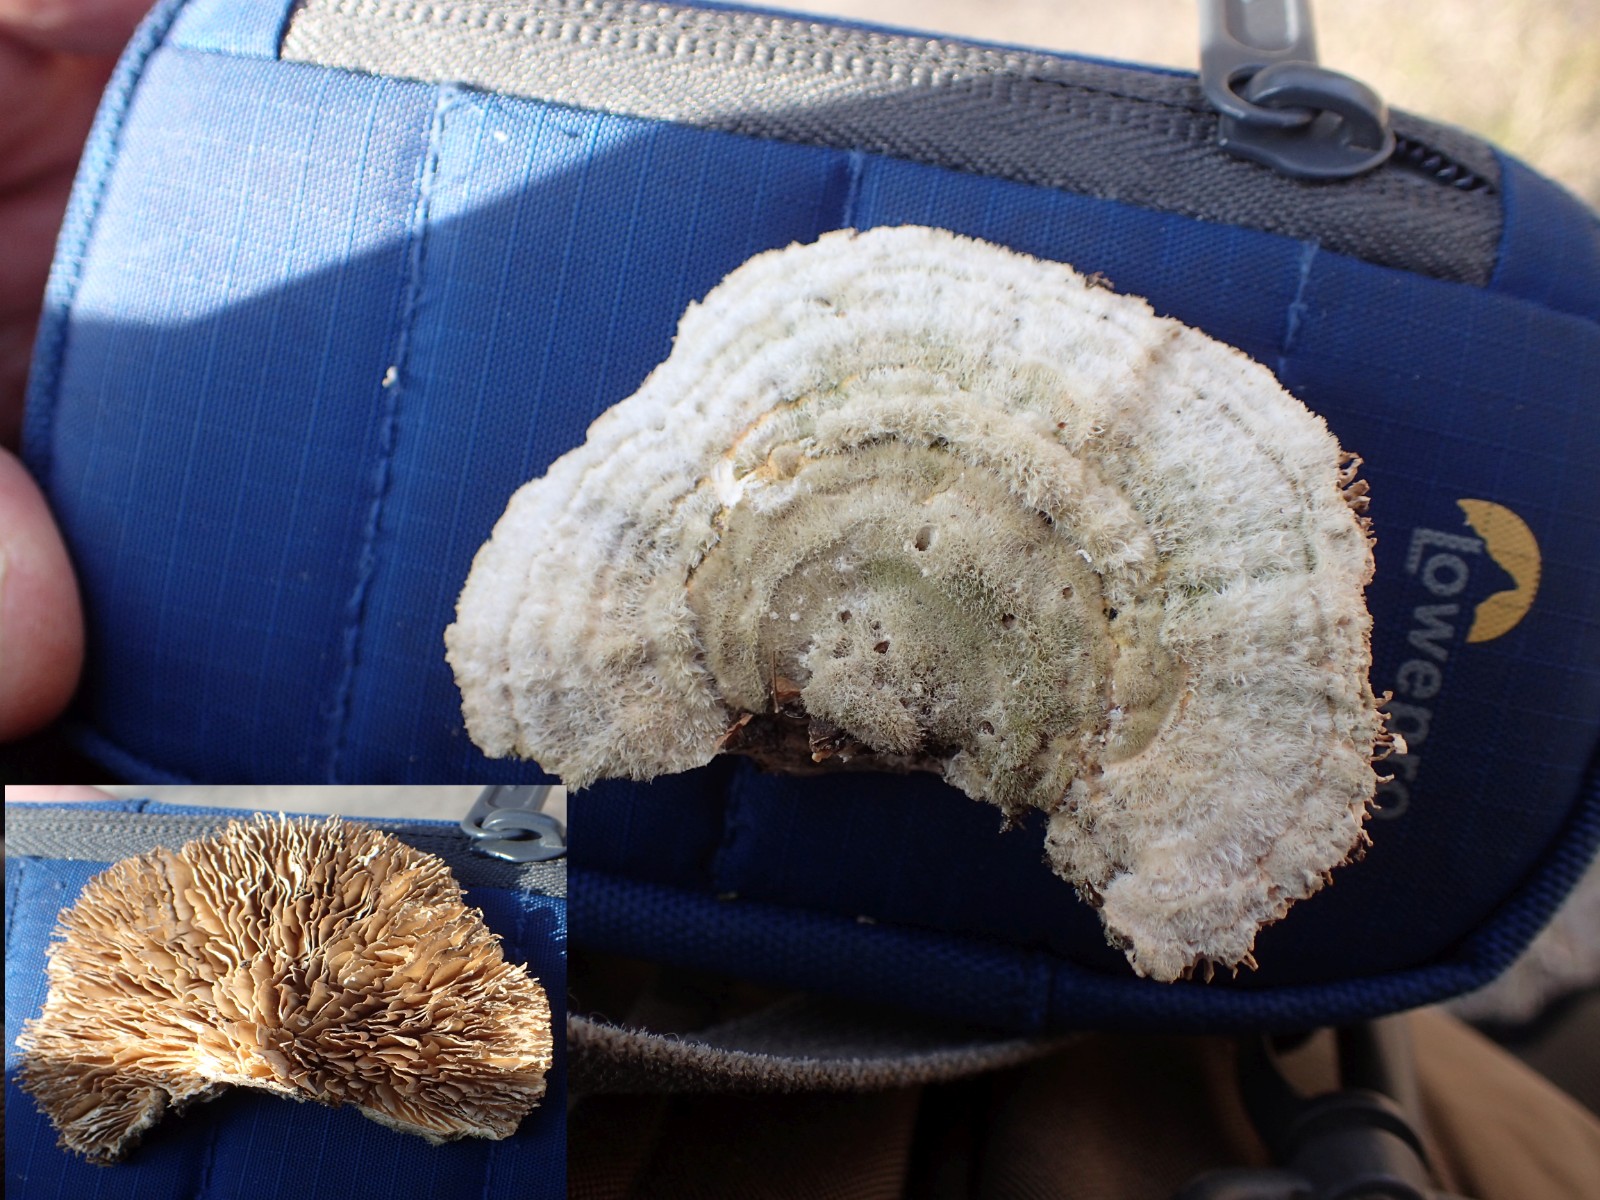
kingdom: Fungi
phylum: Basidiomycota
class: Agaricomycetes
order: Polyporales
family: Polyporaceae
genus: Lenzites
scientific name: Lenzites betulinus
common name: birke-læderporesvamp
